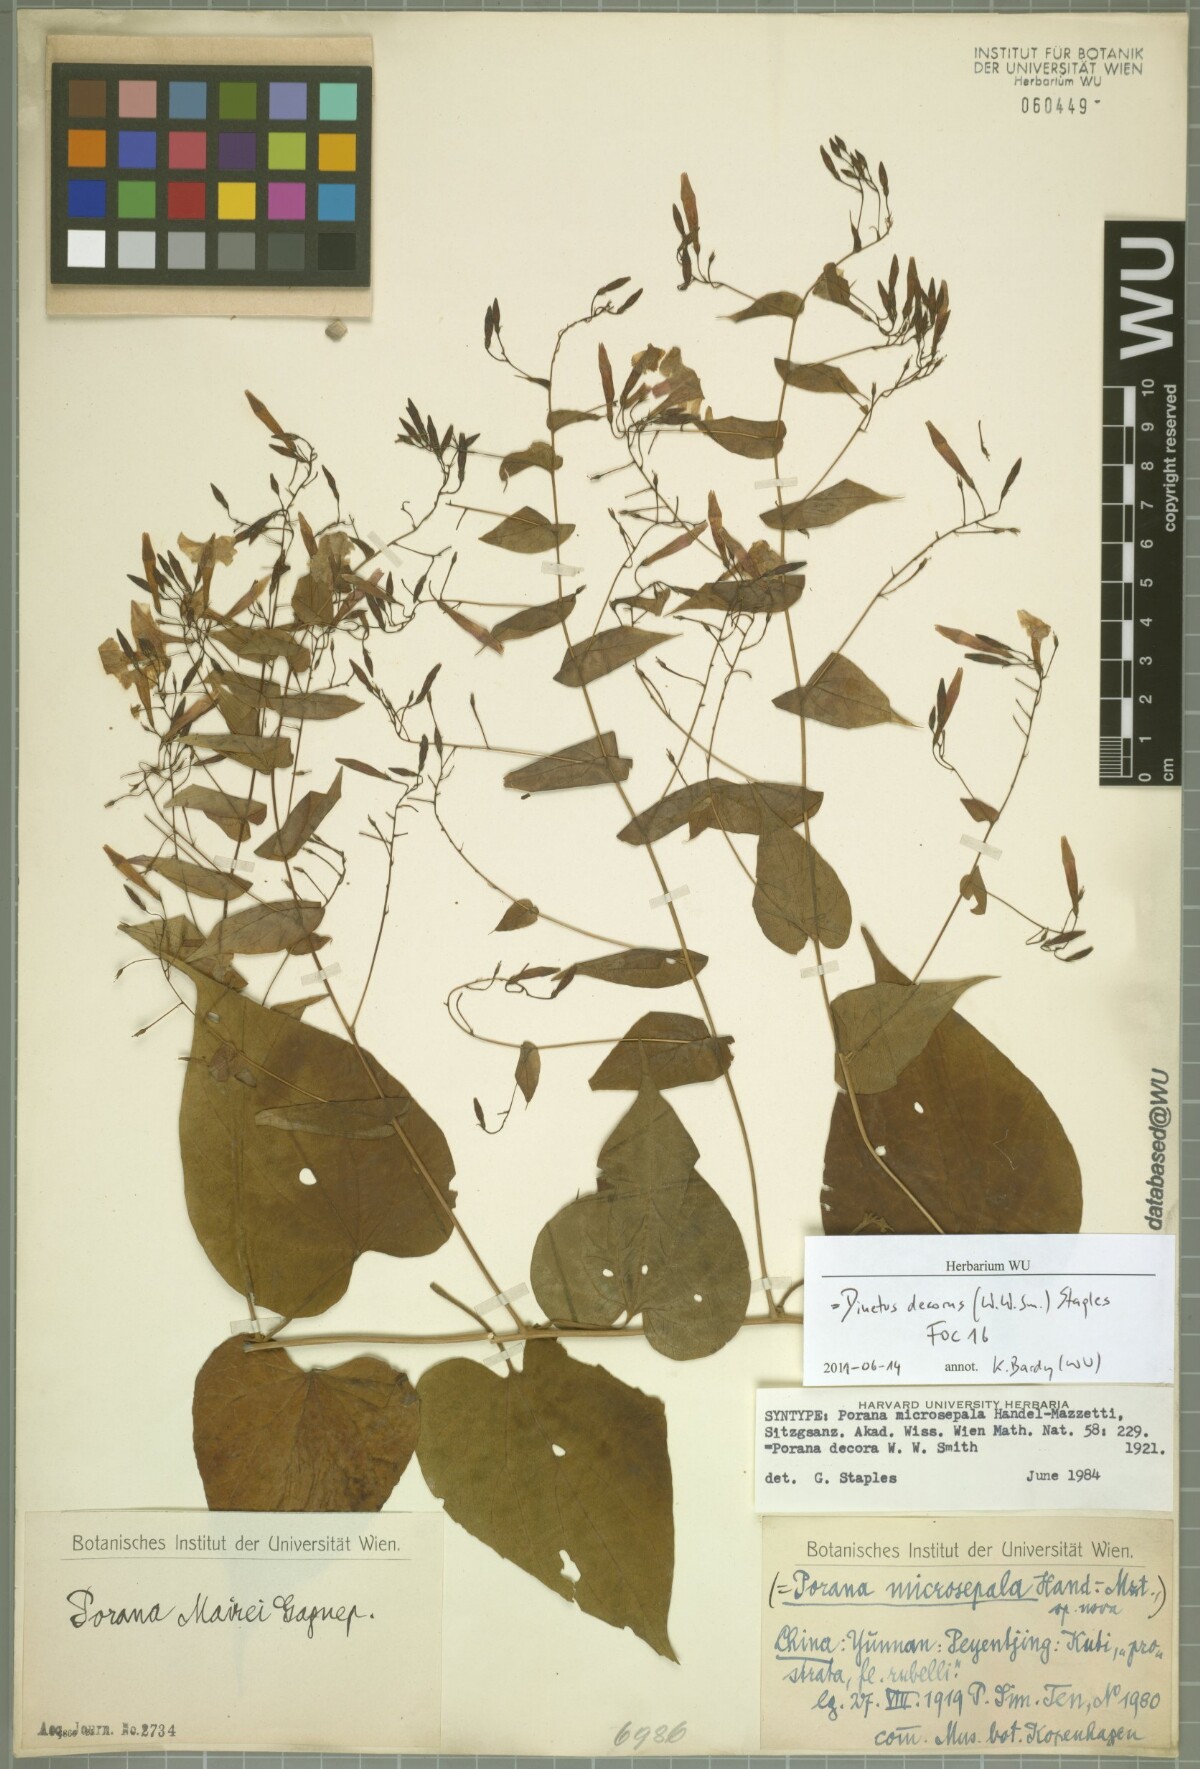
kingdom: Plantae
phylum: Tracheophyta
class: Magnoliopsida
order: Solanales
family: Convolvulaceae
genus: Dinetus
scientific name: Dinetus decorus
